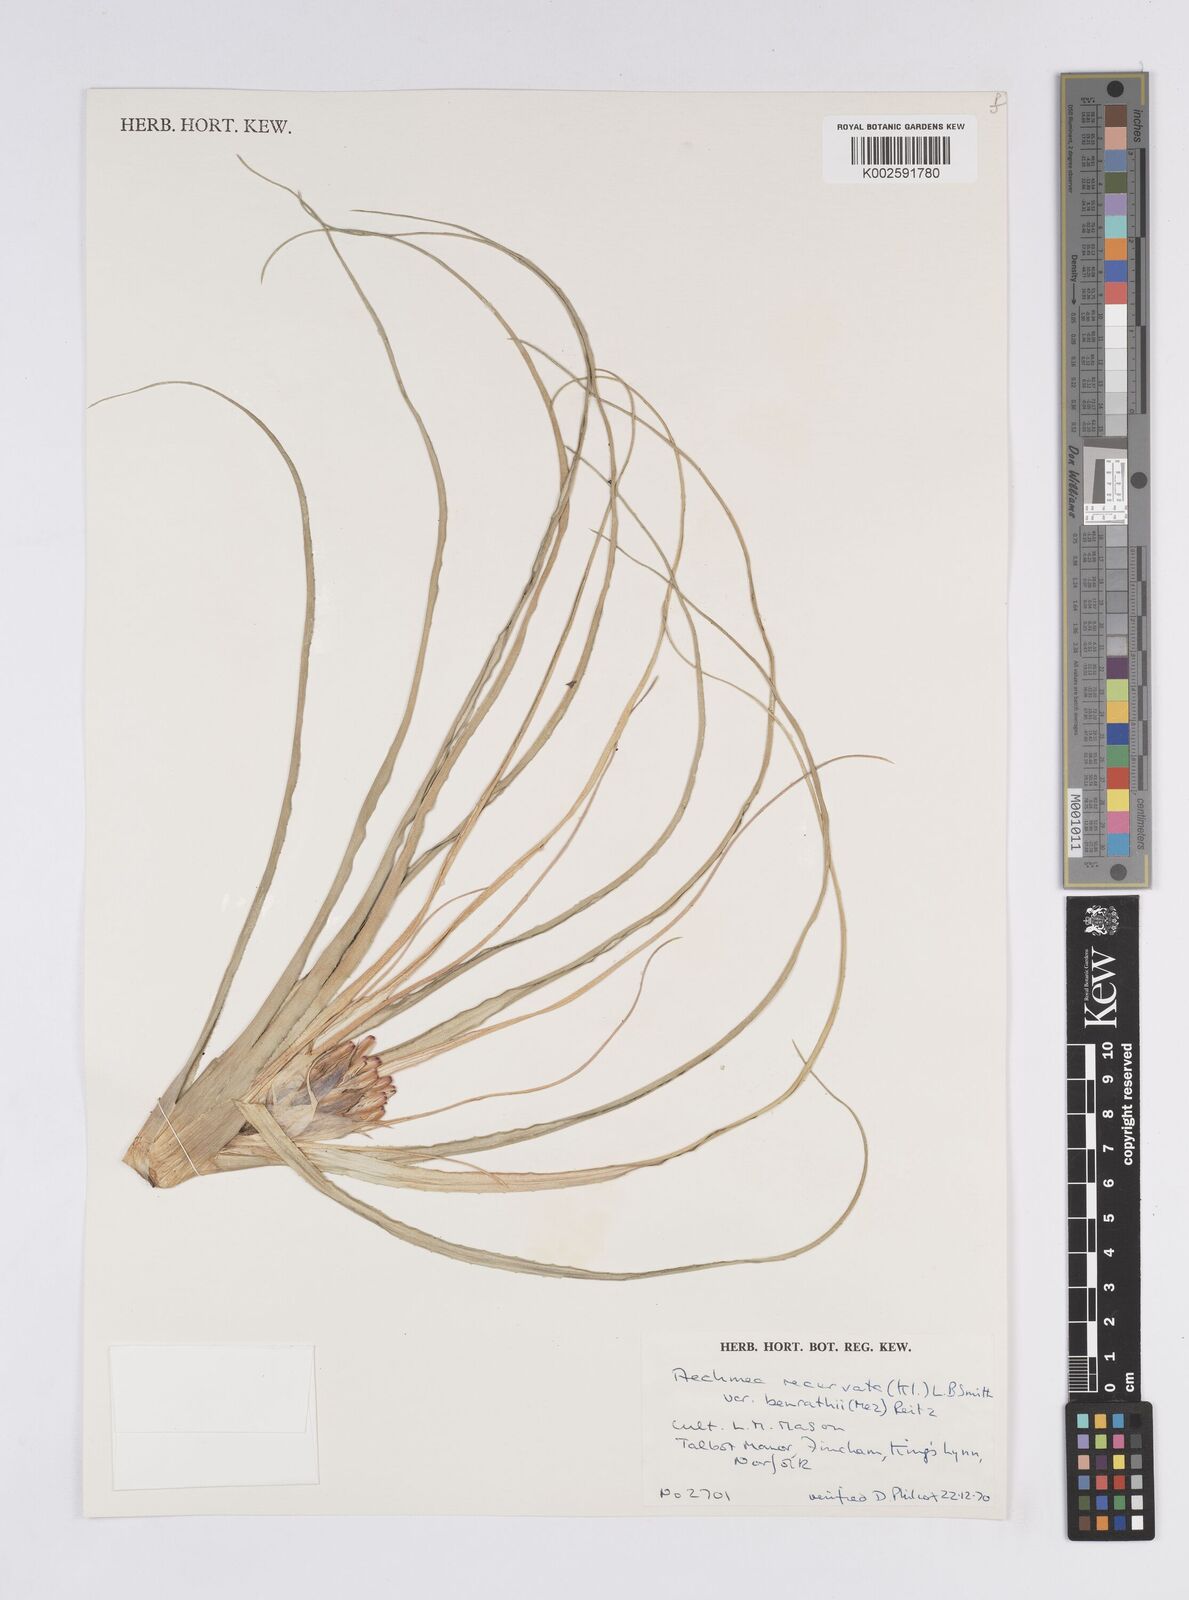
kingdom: Plantae
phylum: Tracheophyta
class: Liliopsida
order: Poales
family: Bromeliaceae
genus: Aechmea
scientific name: Aechmea recurvata
